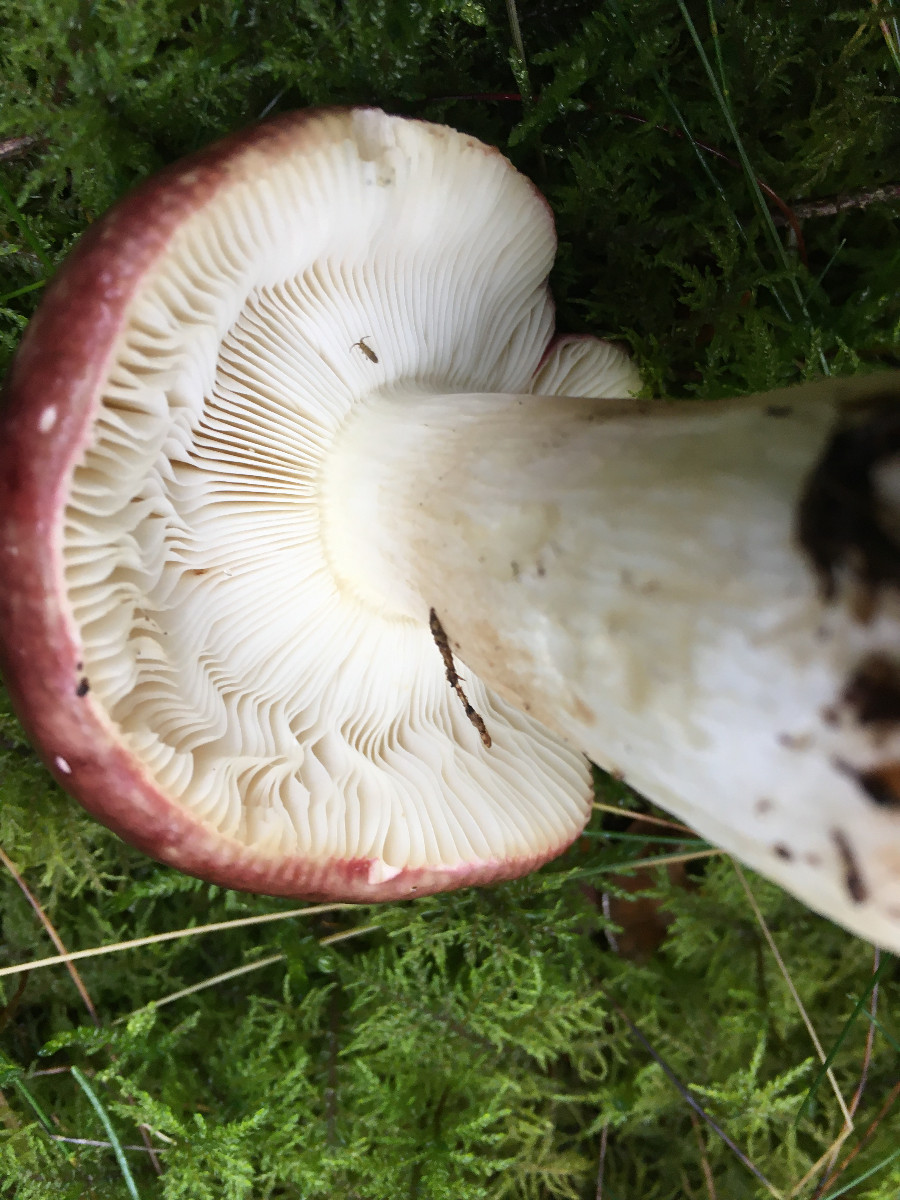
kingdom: Fungi
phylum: Basidiomycota
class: Agaricomycetes
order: Russulales
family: Russulaceae
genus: Russula
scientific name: Russula xerampelina
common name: hummer-skørhat
